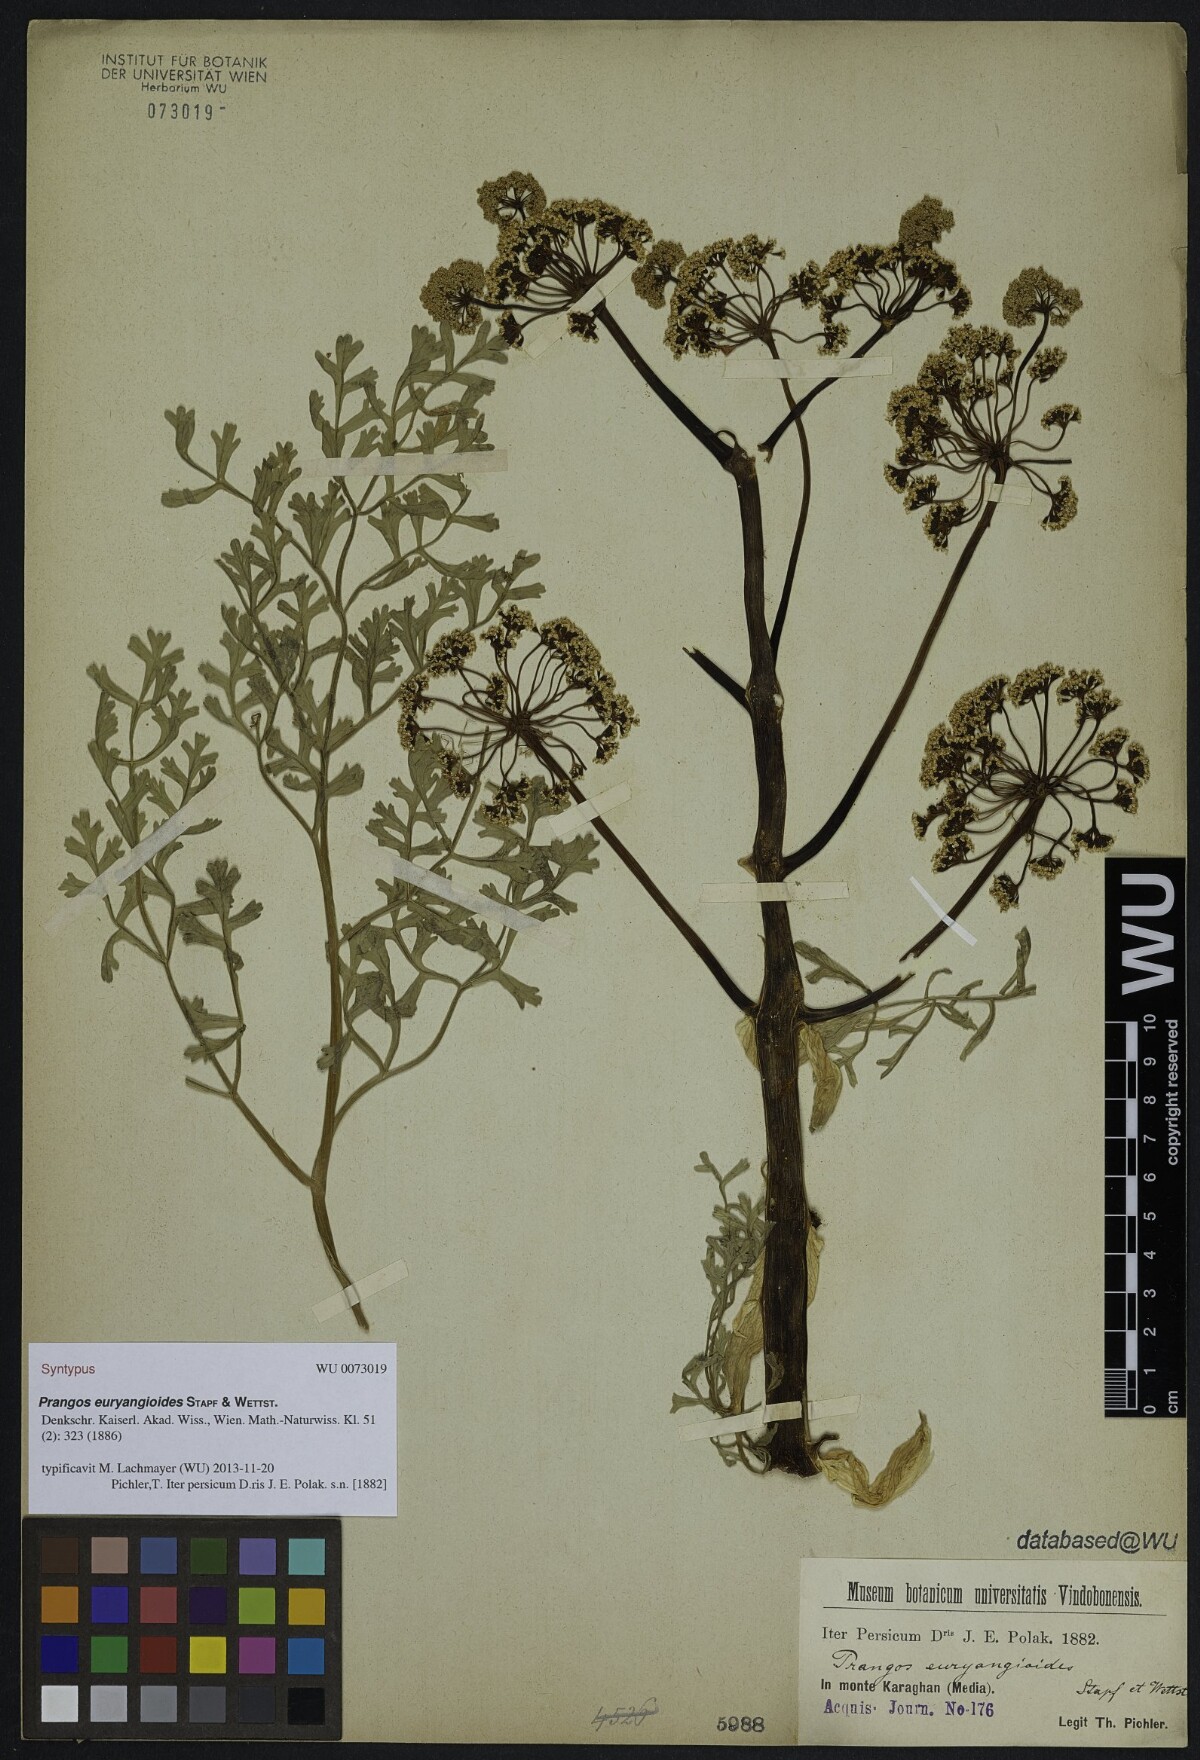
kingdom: Plantae
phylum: Tracheophyta
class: Magnoliopsida
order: Apiales
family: Apiaceae
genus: Ferula
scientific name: Ferula persica
